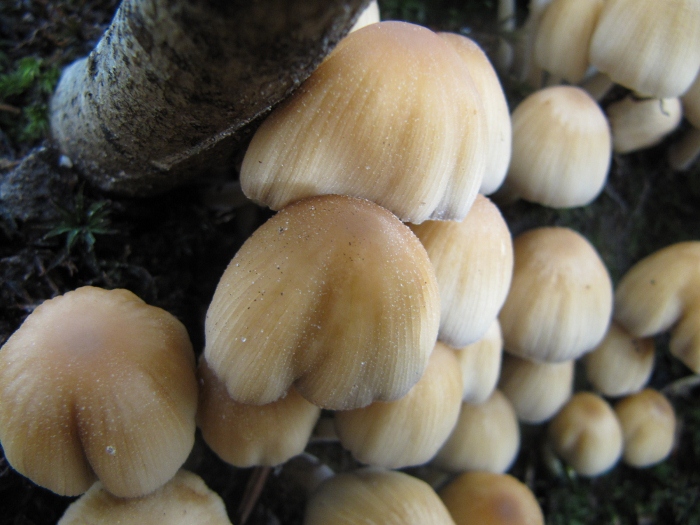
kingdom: Fungi
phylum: Basidiomycota
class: Agaricomycetes
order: Agaricales
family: Psathyrellaceae
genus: Coprinellus
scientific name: Coprinellus micaceus
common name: glimmer-blækhat
